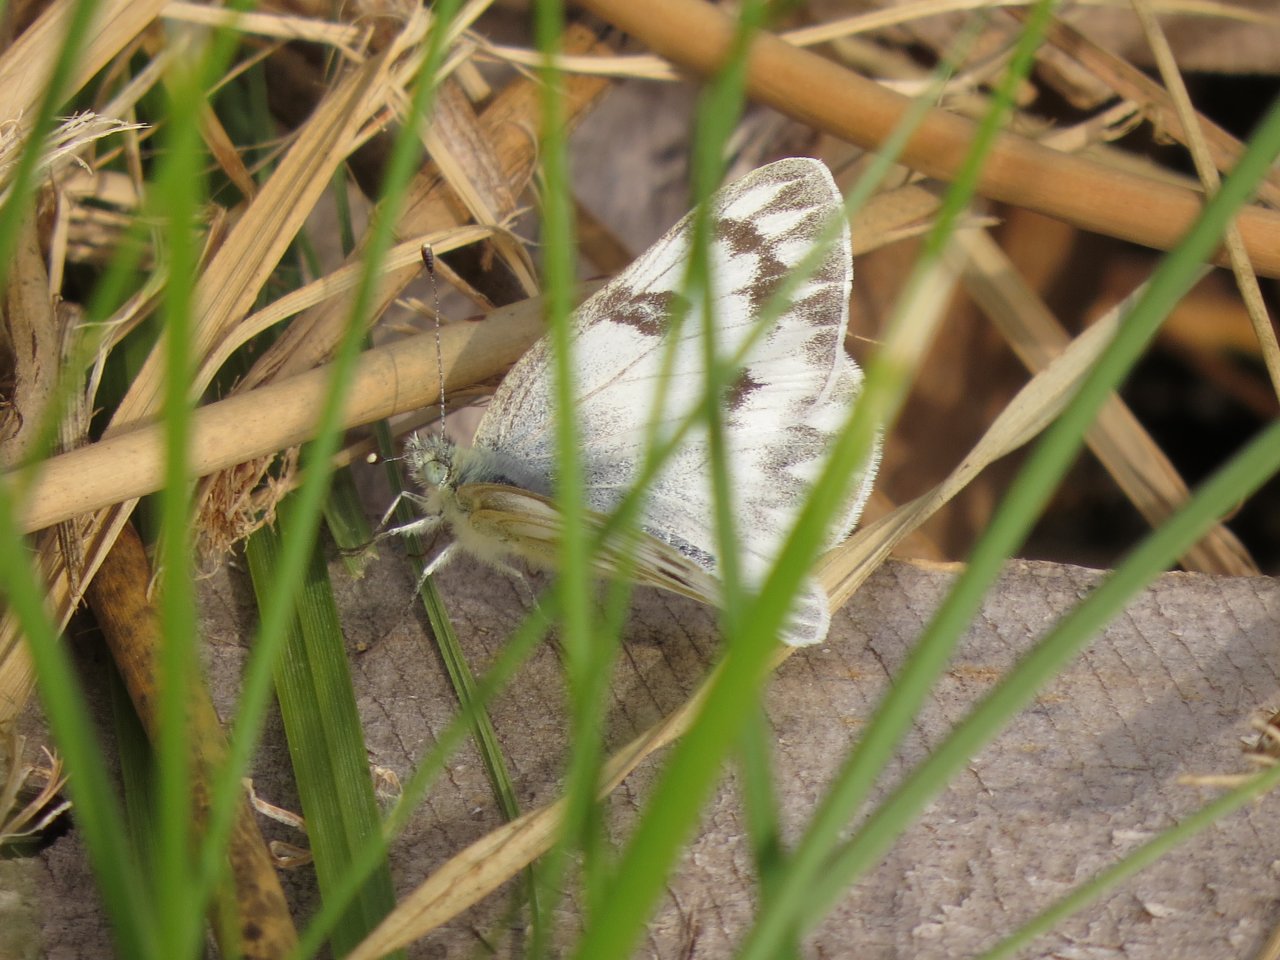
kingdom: Animalia
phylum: Arthropoda
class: Insecta
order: Lepidoptera
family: Pieridae
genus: Pontia
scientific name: Pontia occidentalis
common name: Western White
